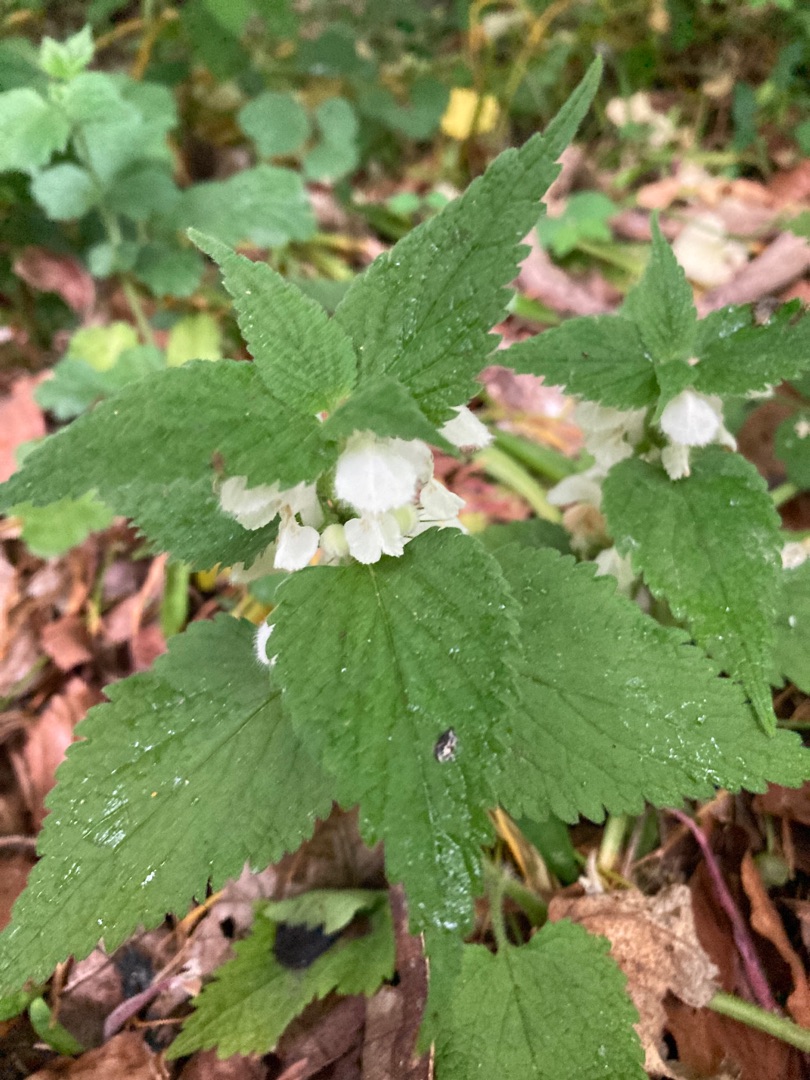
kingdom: Plantae
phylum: Tracheophyta
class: Magnoliopsida
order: Lamiales
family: Lamiaceae
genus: Lamium
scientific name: Lamium album
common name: Døvnælde
